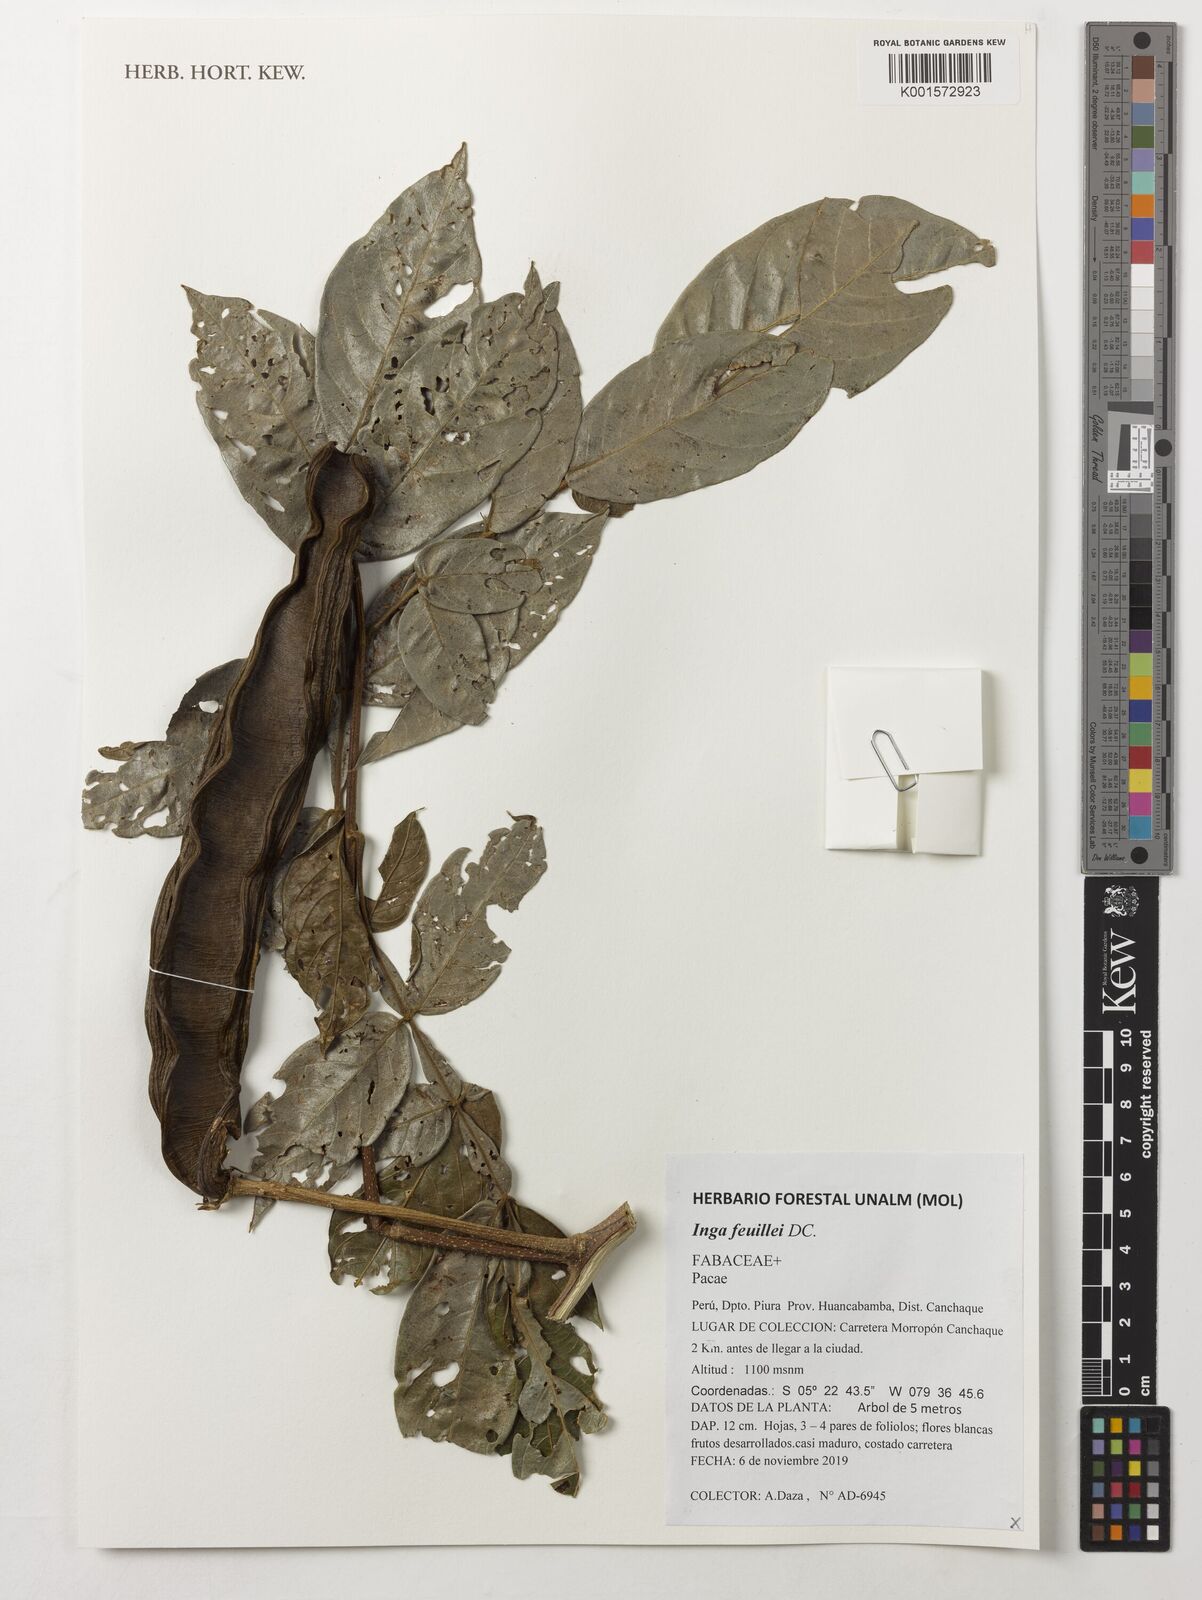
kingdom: Plantae
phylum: Tracheophyta
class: Magnoliopsida
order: Fabales
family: Fabaceae
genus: Inga
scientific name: Inga feuillei
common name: Ice cream bean
